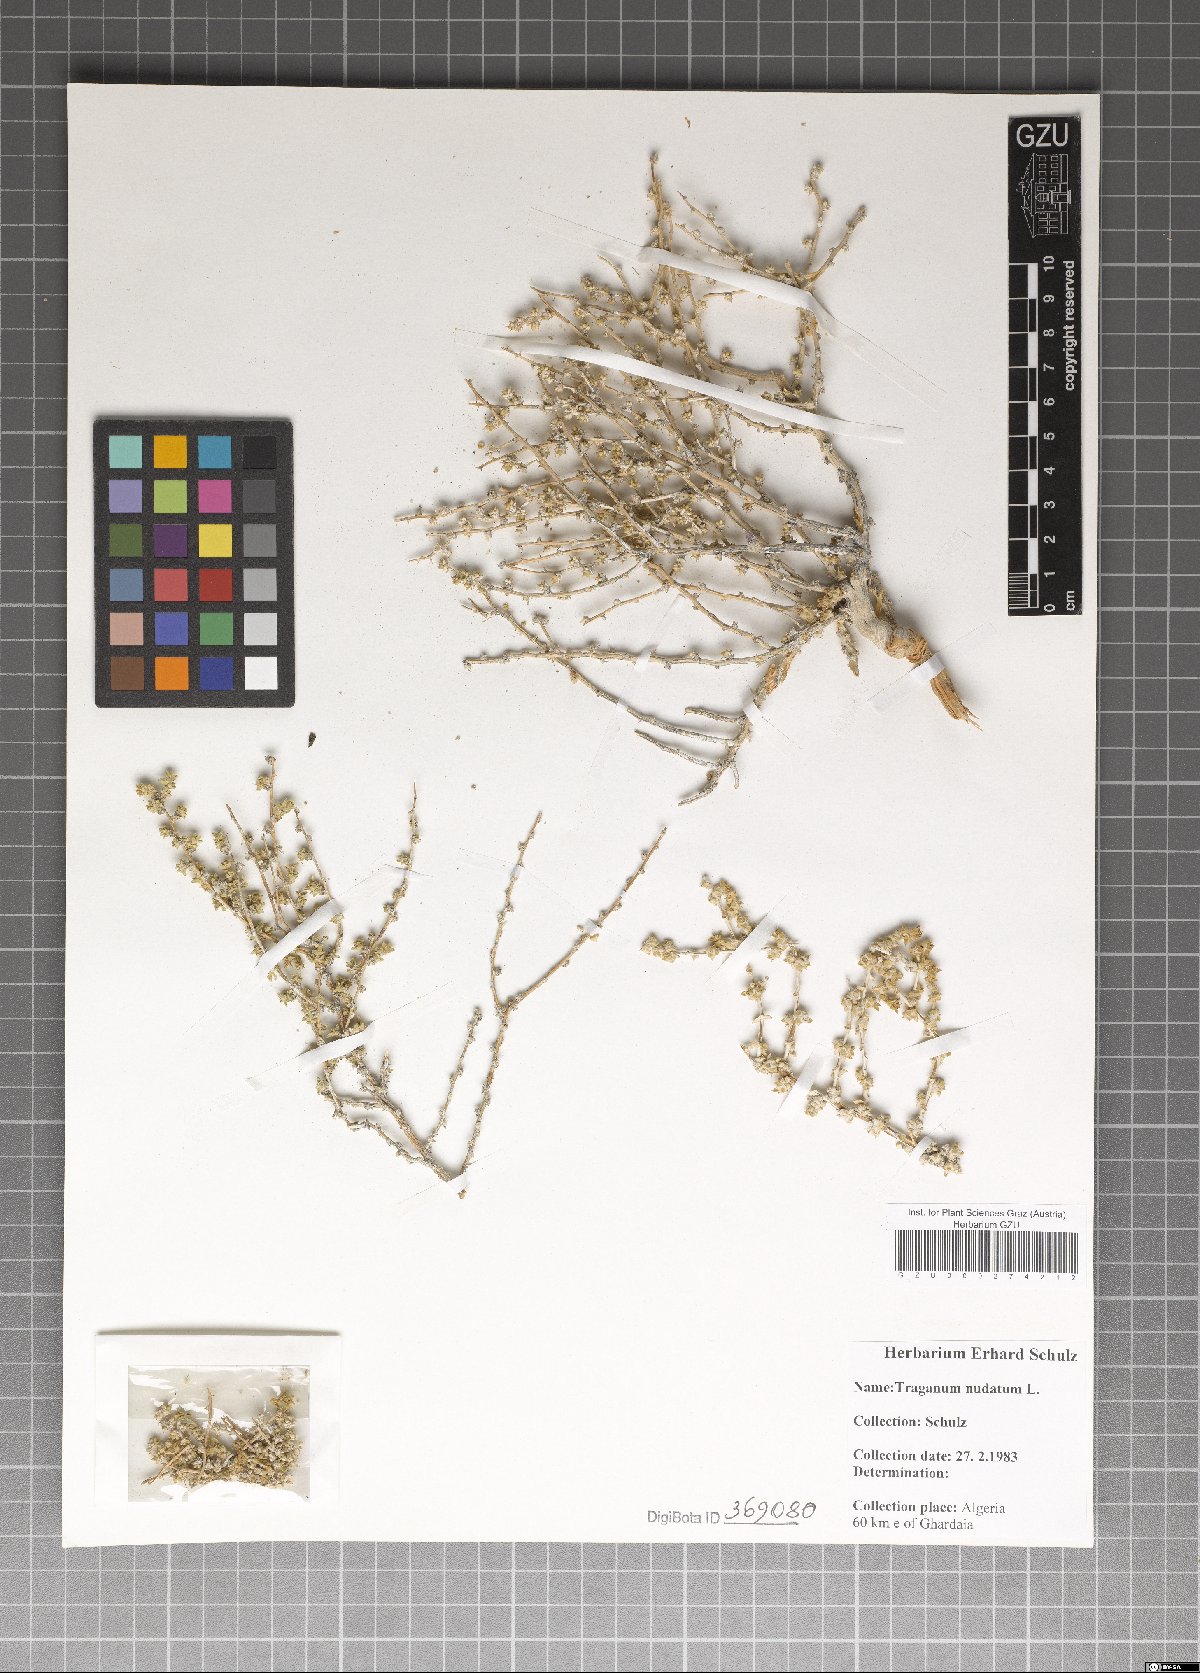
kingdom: Plantae
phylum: Tracheophyta
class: Magnoliopsida
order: Caryophyllales
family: Amaranthaceae
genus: Traganum
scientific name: Traganum nudatum
